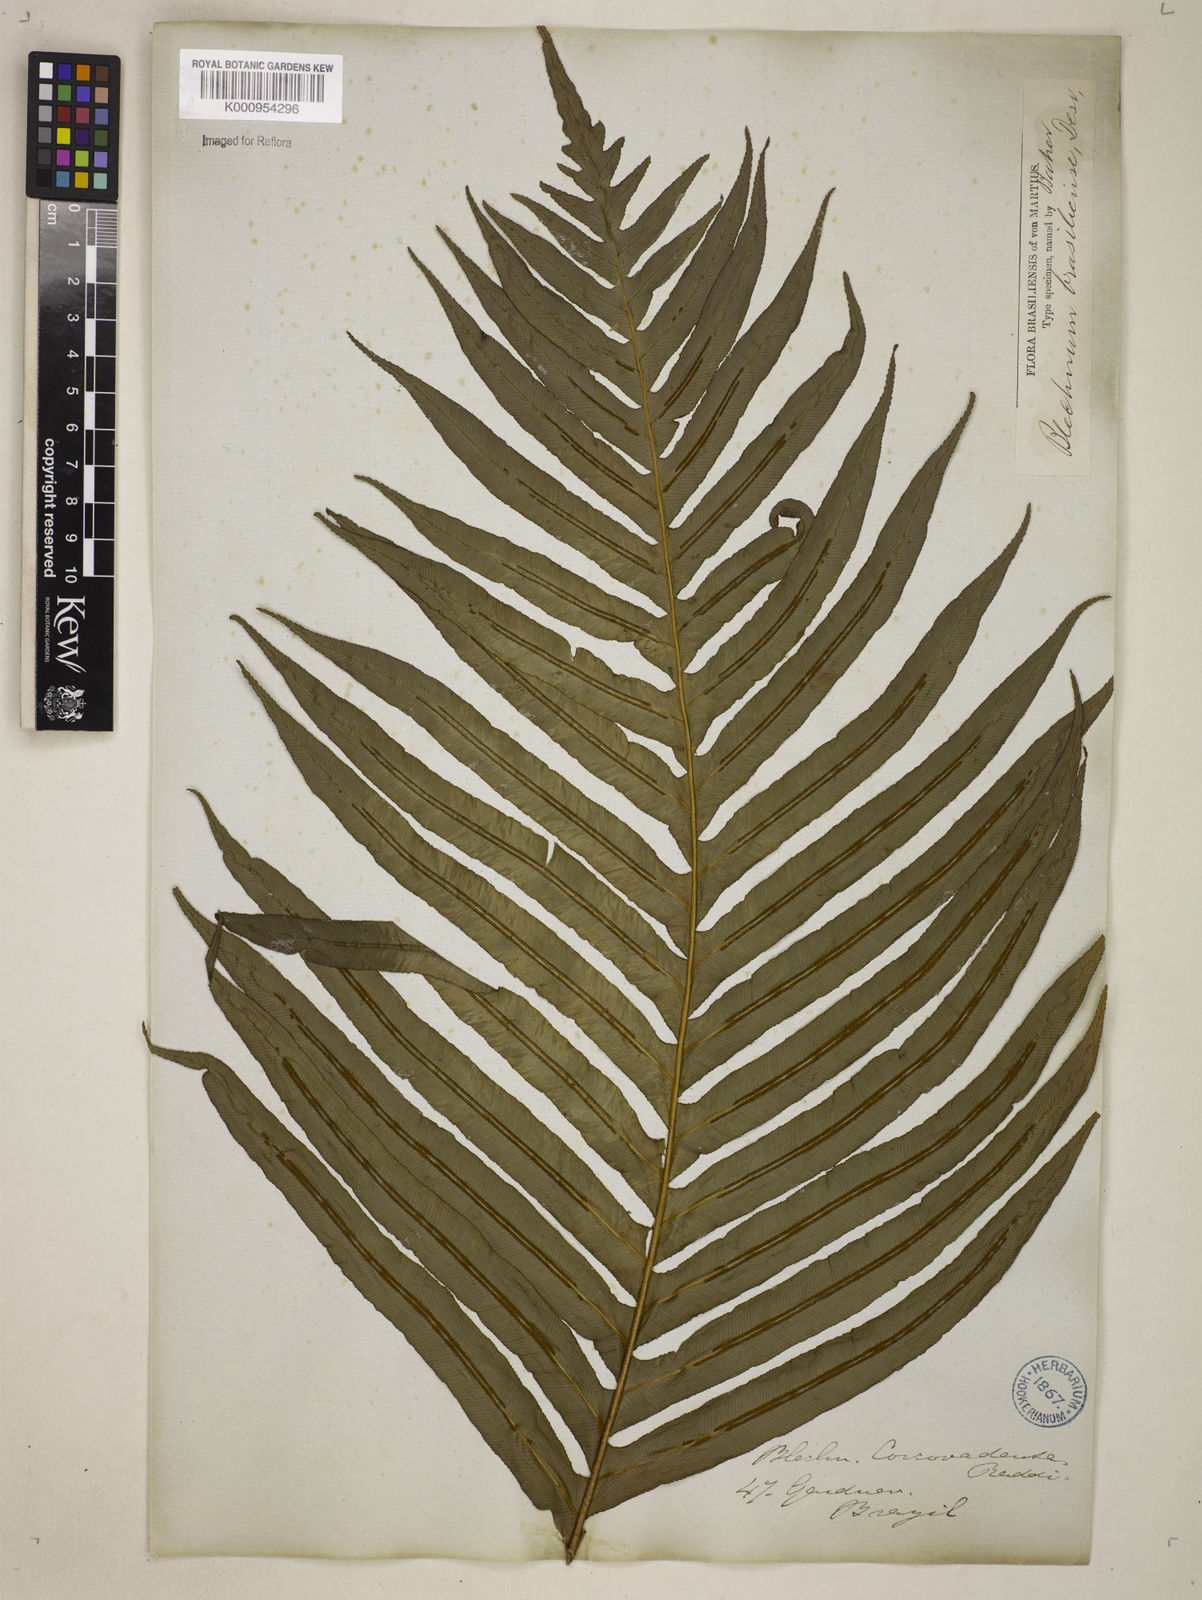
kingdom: Plantae
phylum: Tracheophyta
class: Polypodiopsida
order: Polypodiales
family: Blechnaceae
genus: Neoblechnum
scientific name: Neoblechnum brasiliense
